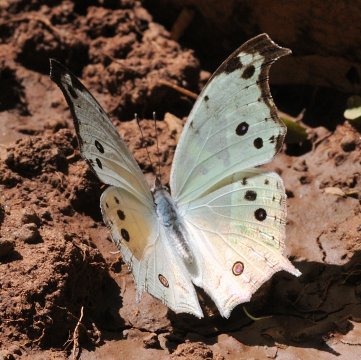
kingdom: Animalia
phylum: Arthropoda
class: Insecta
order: Lepidoptera
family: Nymphalidae
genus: Salamis
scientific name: Salamis Protogoniomorpha parhassus
